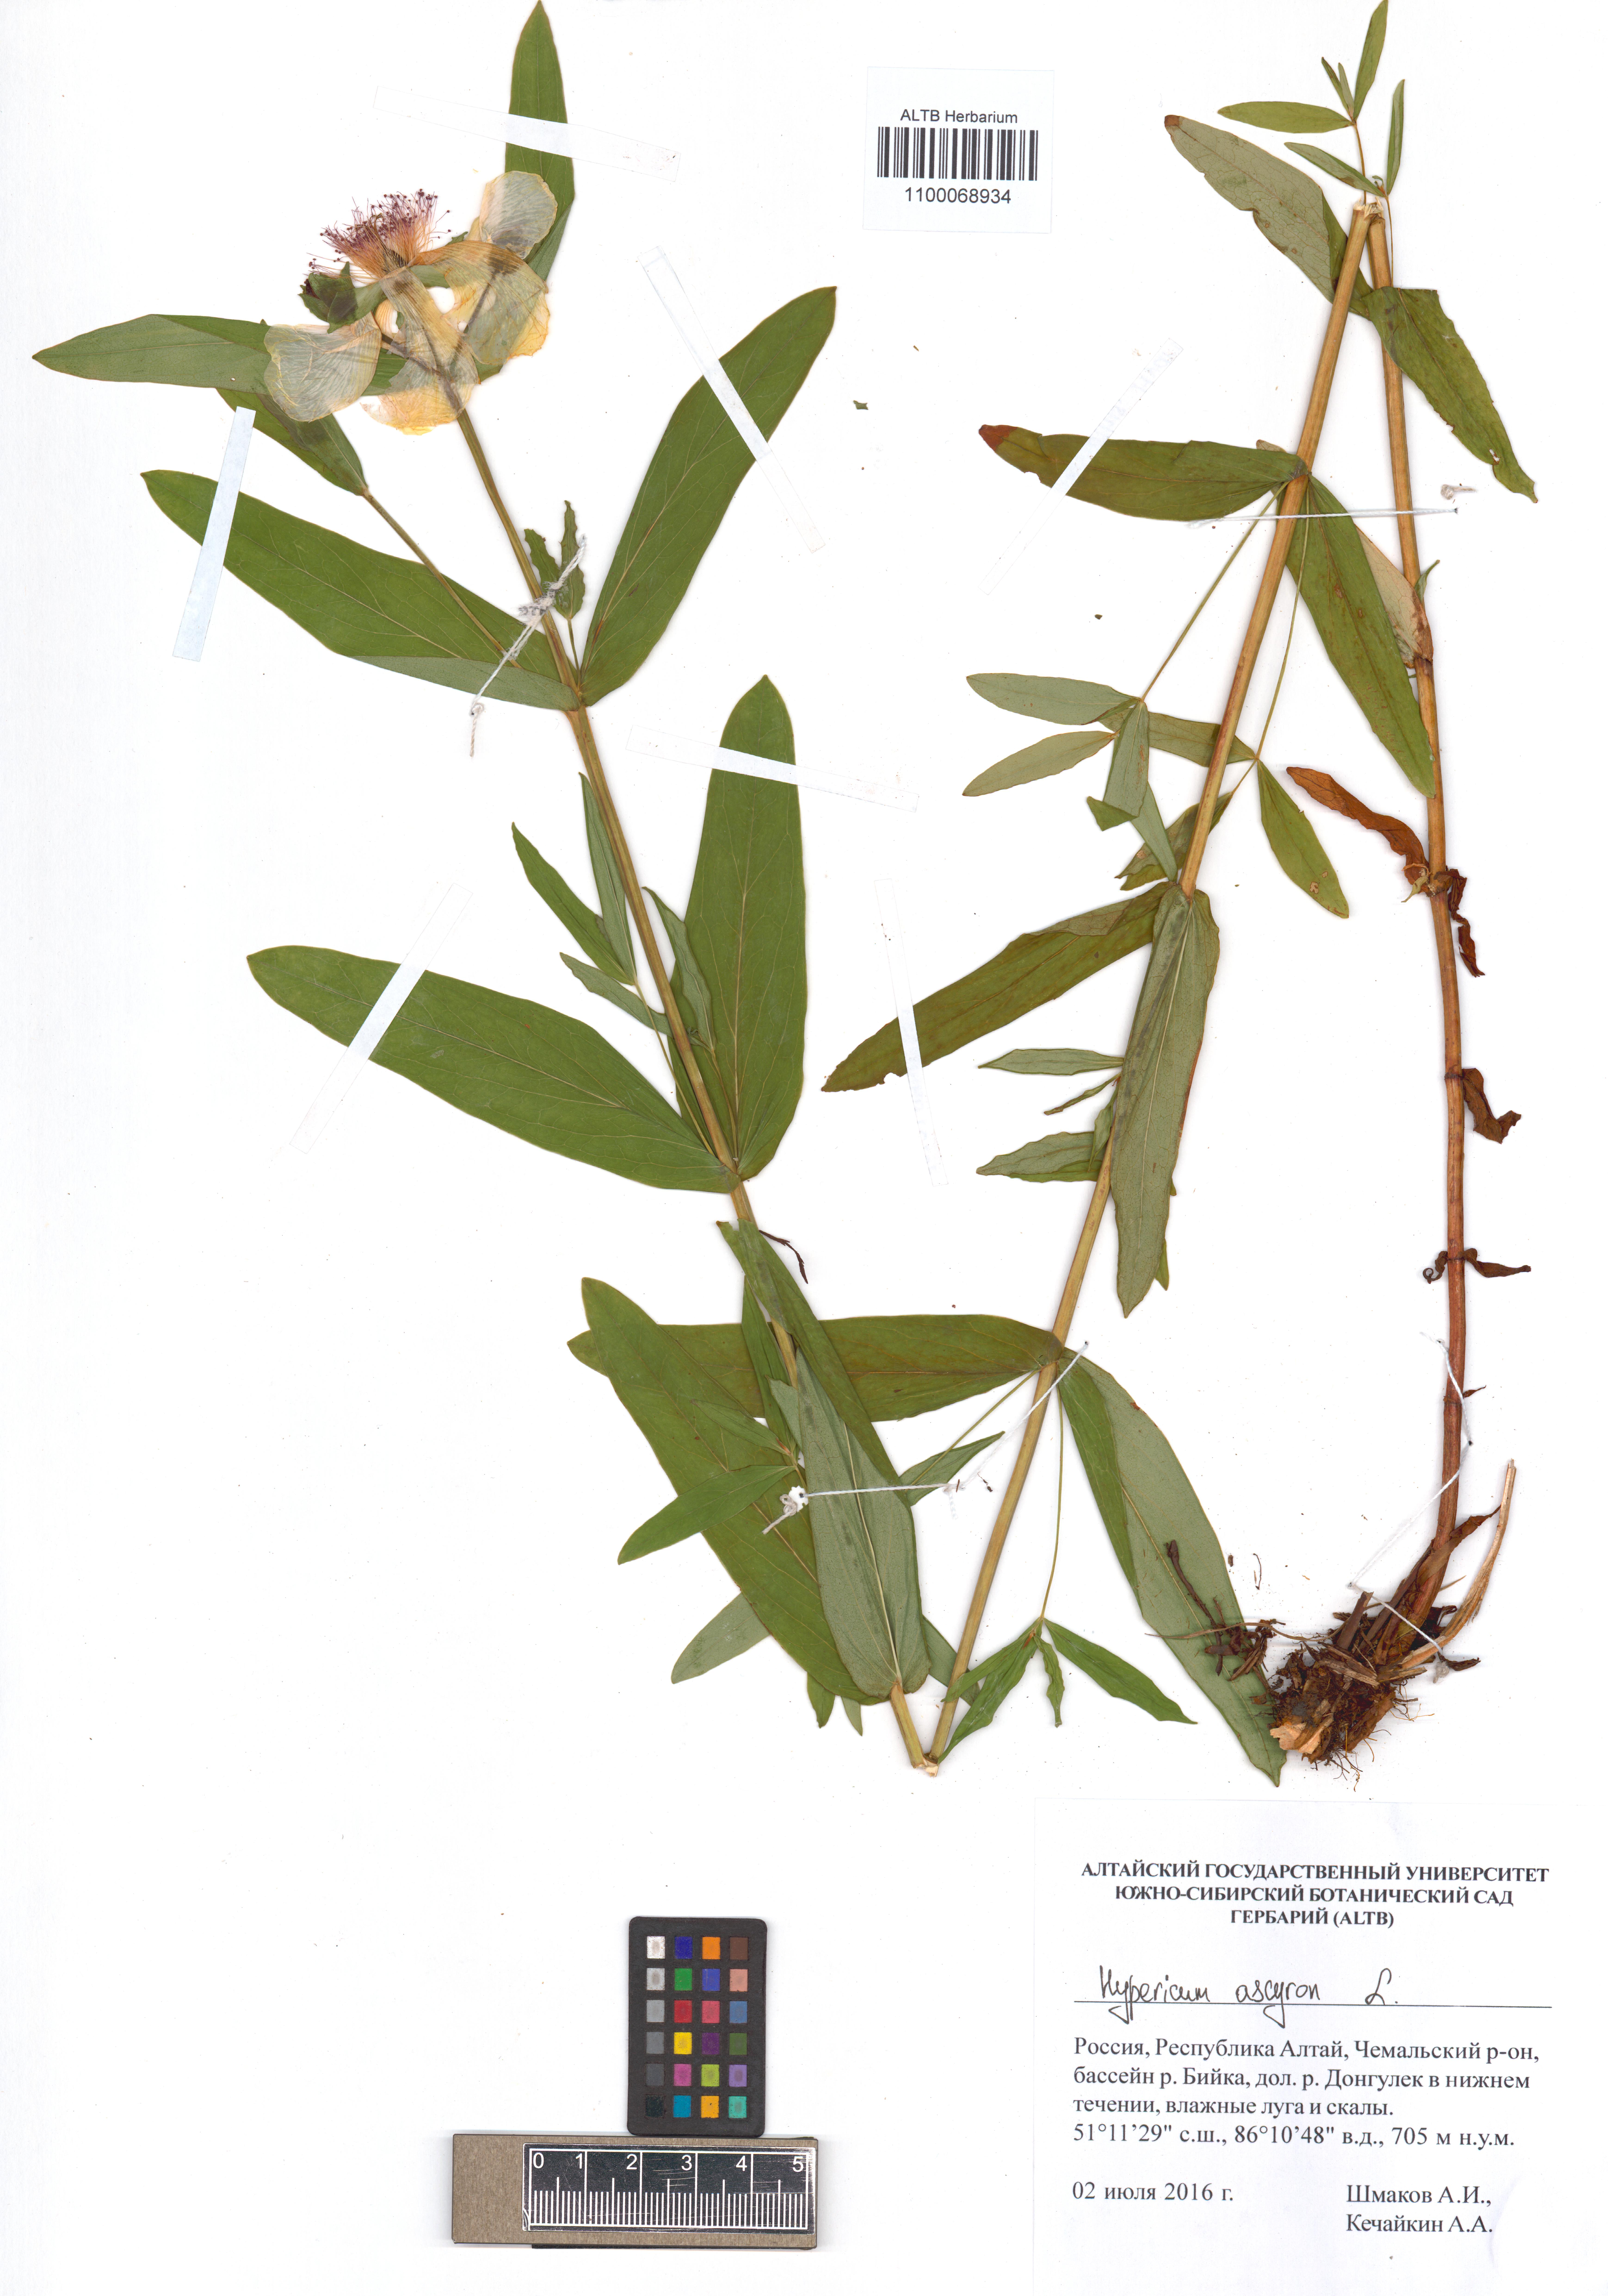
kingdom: Plantae
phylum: Tracheophyta
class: Magnoliopsida
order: Malpighiales
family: Hypericaceae
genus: Hypericum
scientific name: Hypericum ascyron
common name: Giant st. john's-wort
